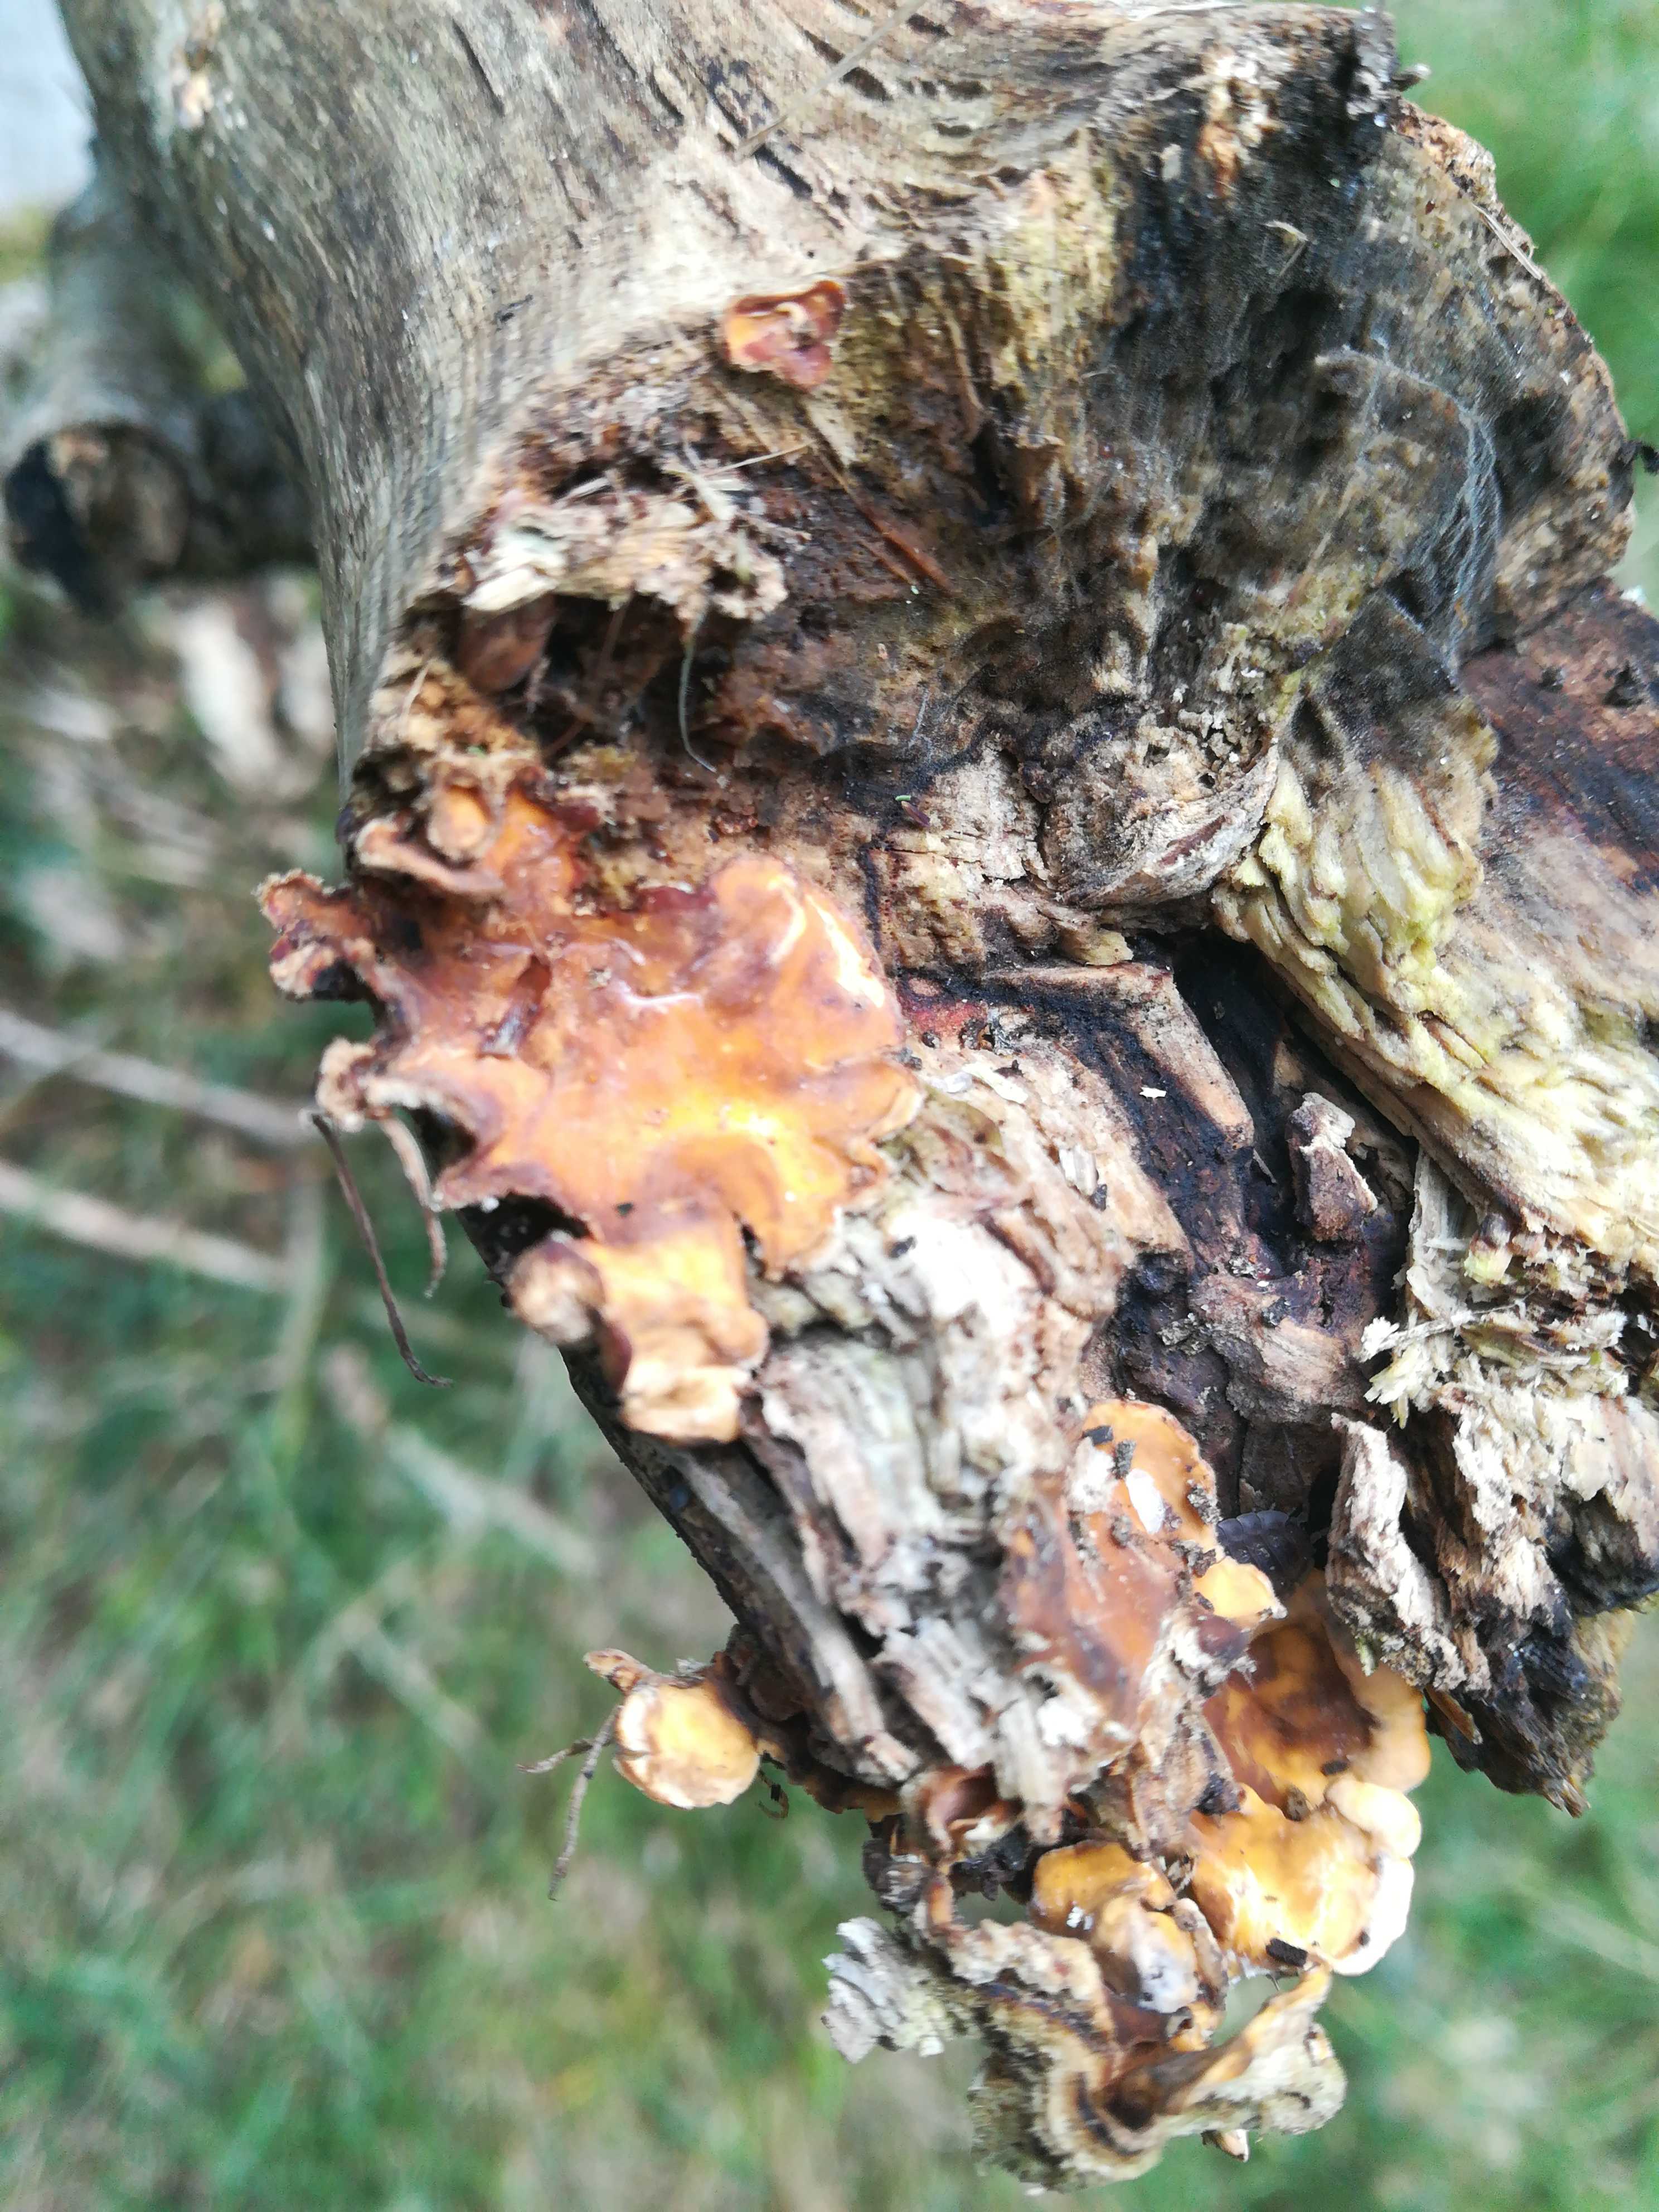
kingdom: Fungi
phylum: Basidiomycota
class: Agaricomycetes
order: Russulales
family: Stereaceae
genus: Stereum
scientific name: Stereum hirsutum
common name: håret lædersvamp
